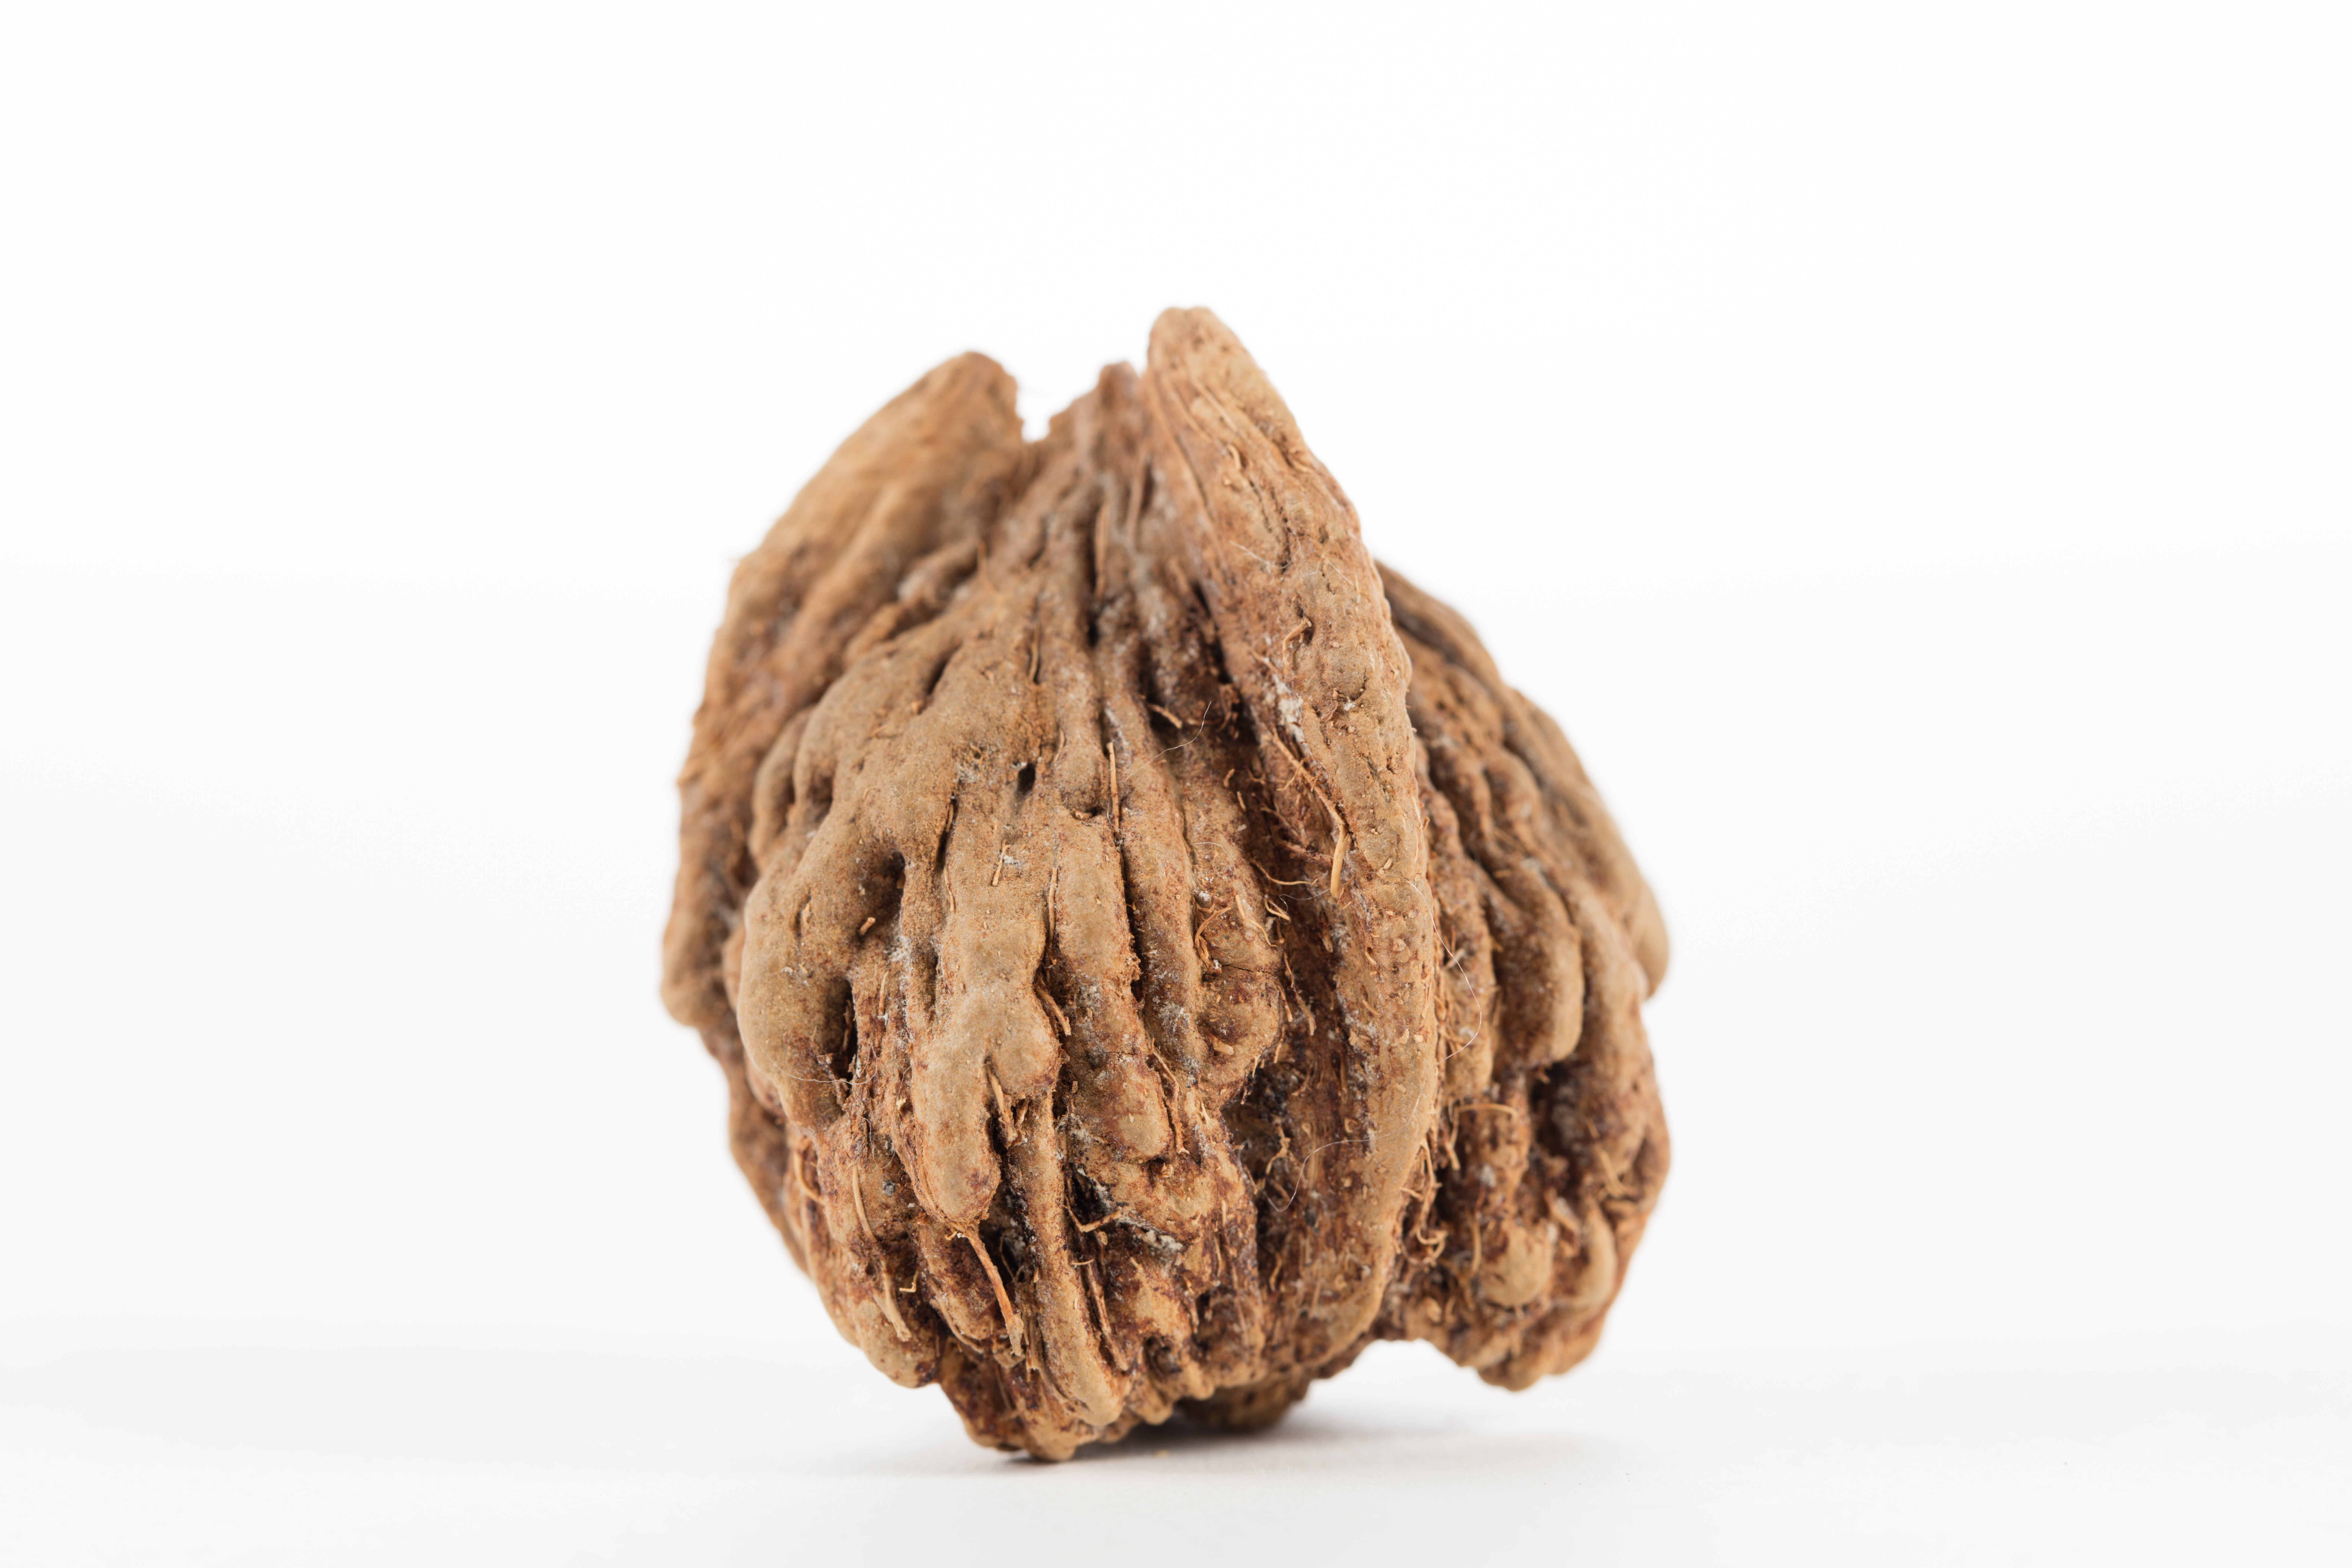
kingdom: Plantae
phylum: Tracheophyta
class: Liliopsida
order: Arecales
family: Arecaceae
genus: Parajubaea
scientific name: Parajubaea torallyi
